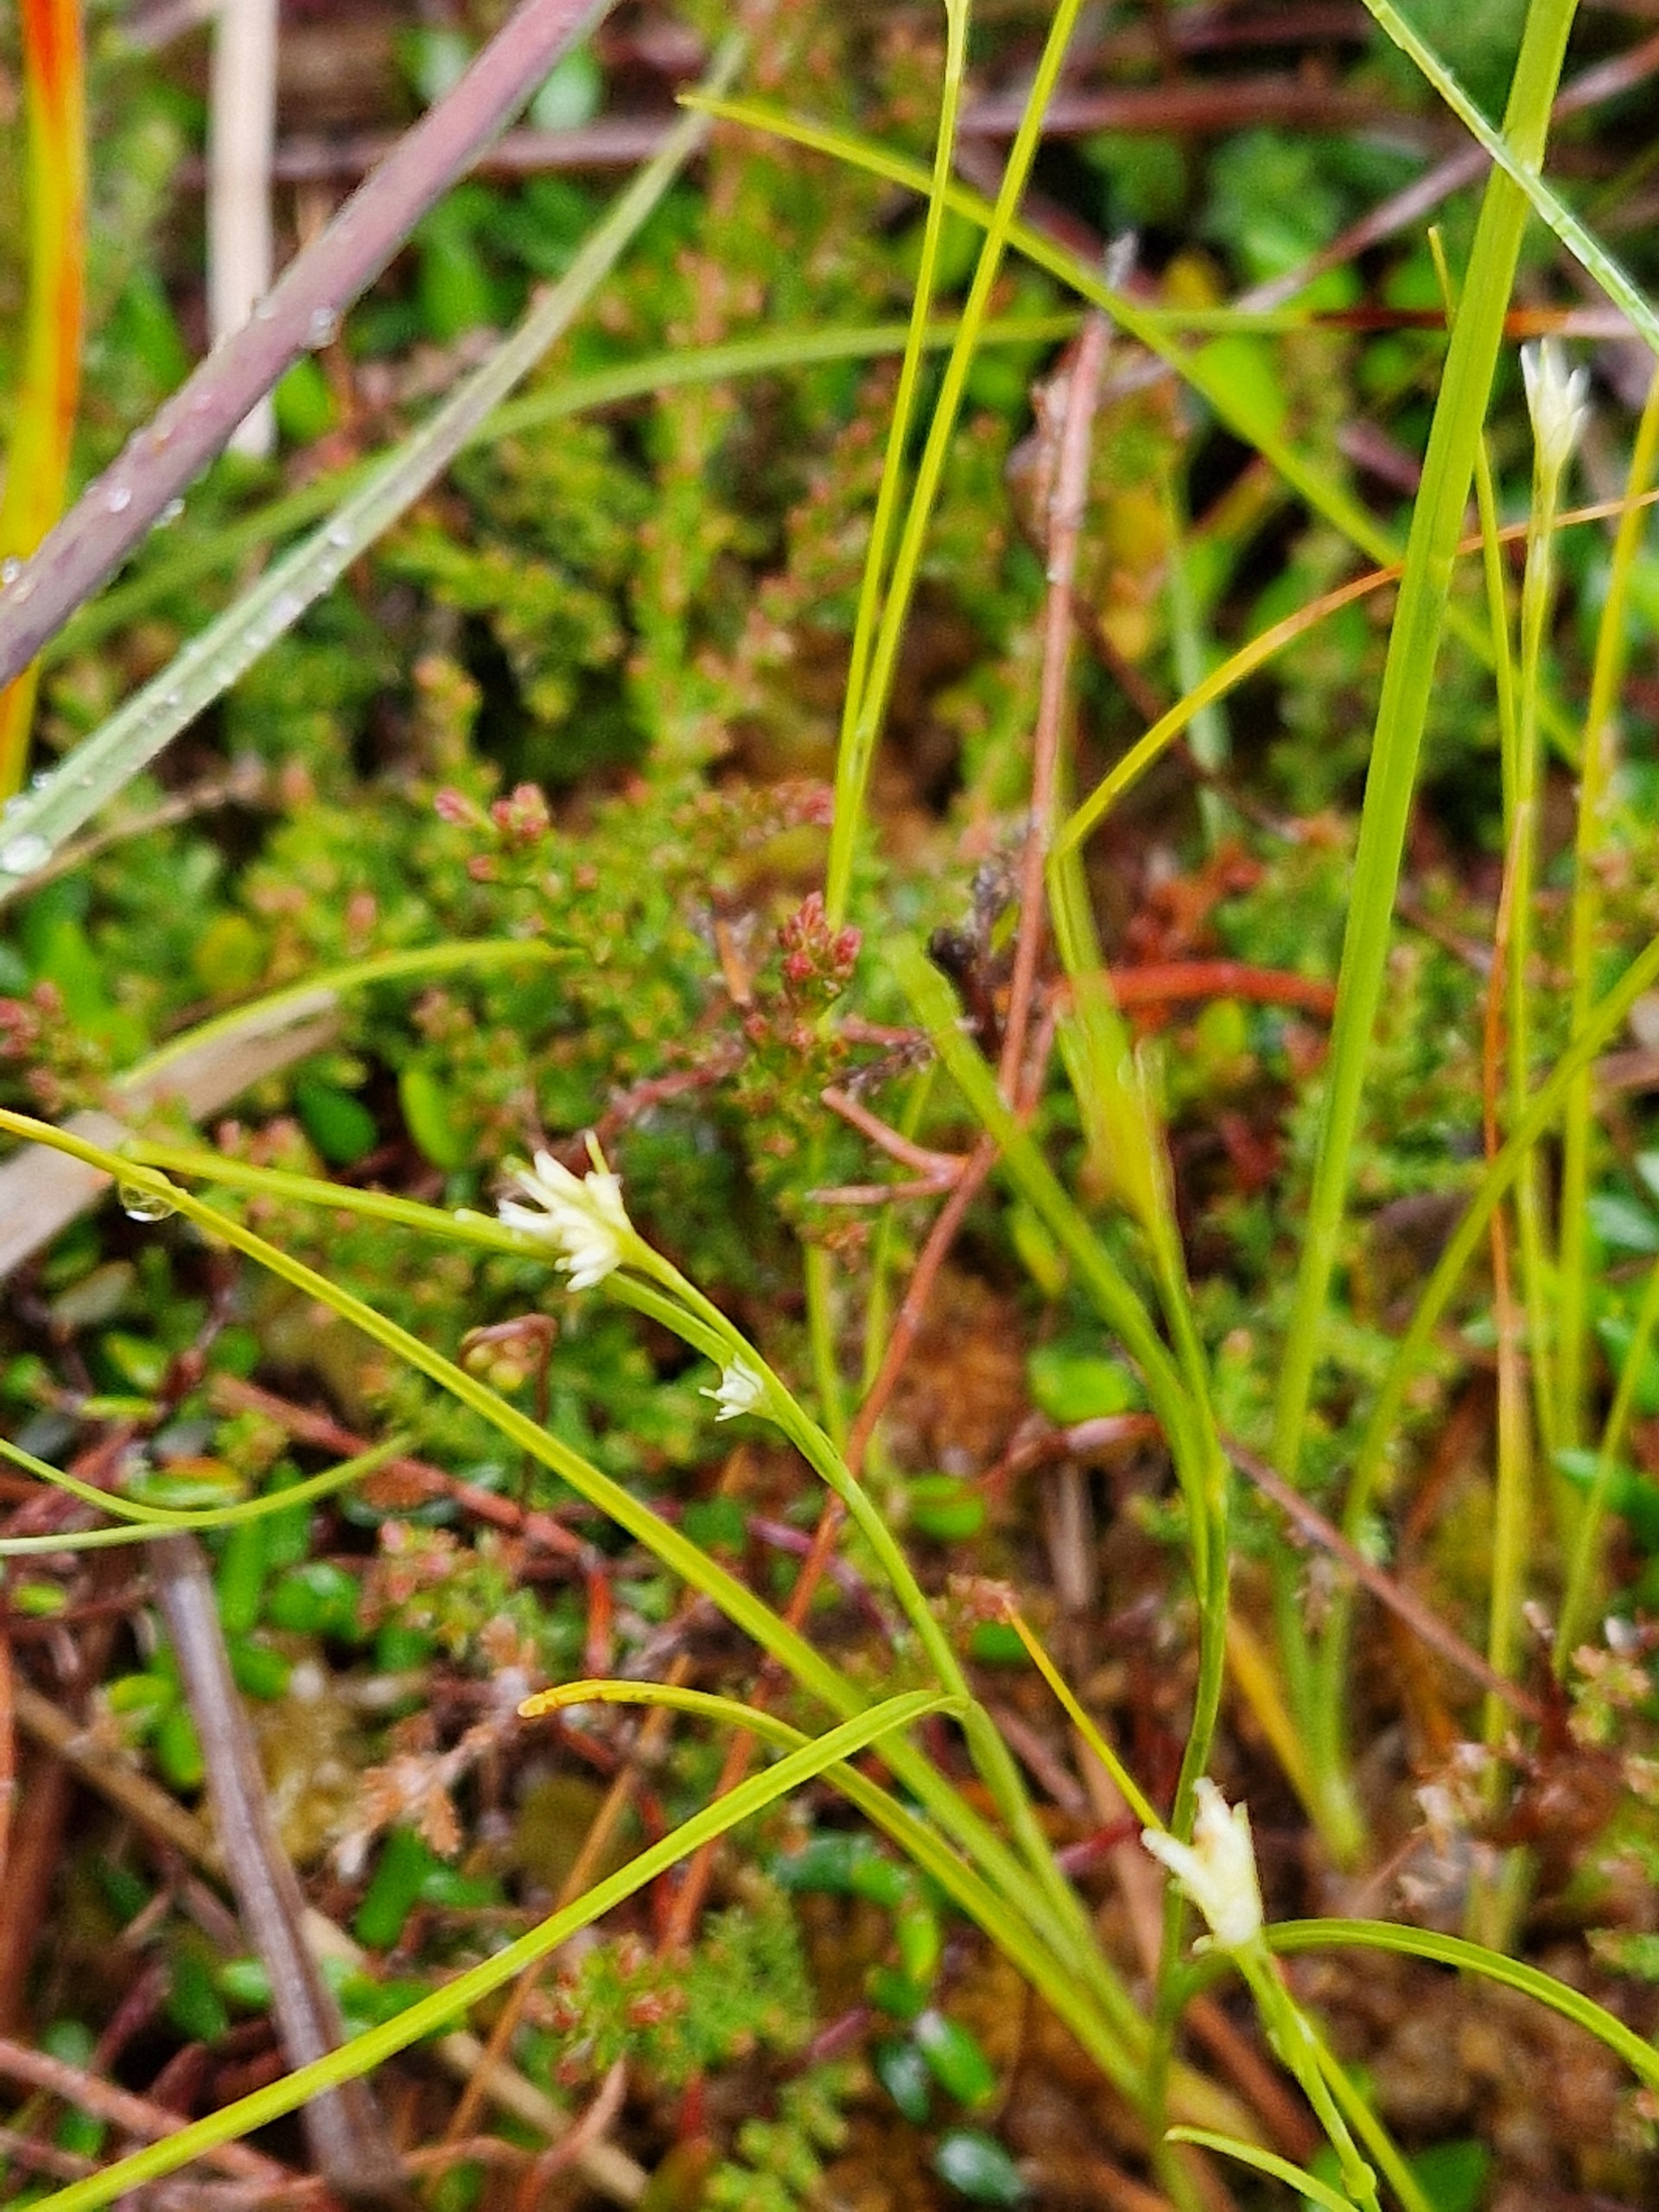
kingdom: Plantae
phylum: Tracheophyta
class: Liliopsida
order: Poales
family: Cyperaceae
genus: Rhynchospora
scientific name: Rhynchospora alba
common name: Hvid næbfrø
